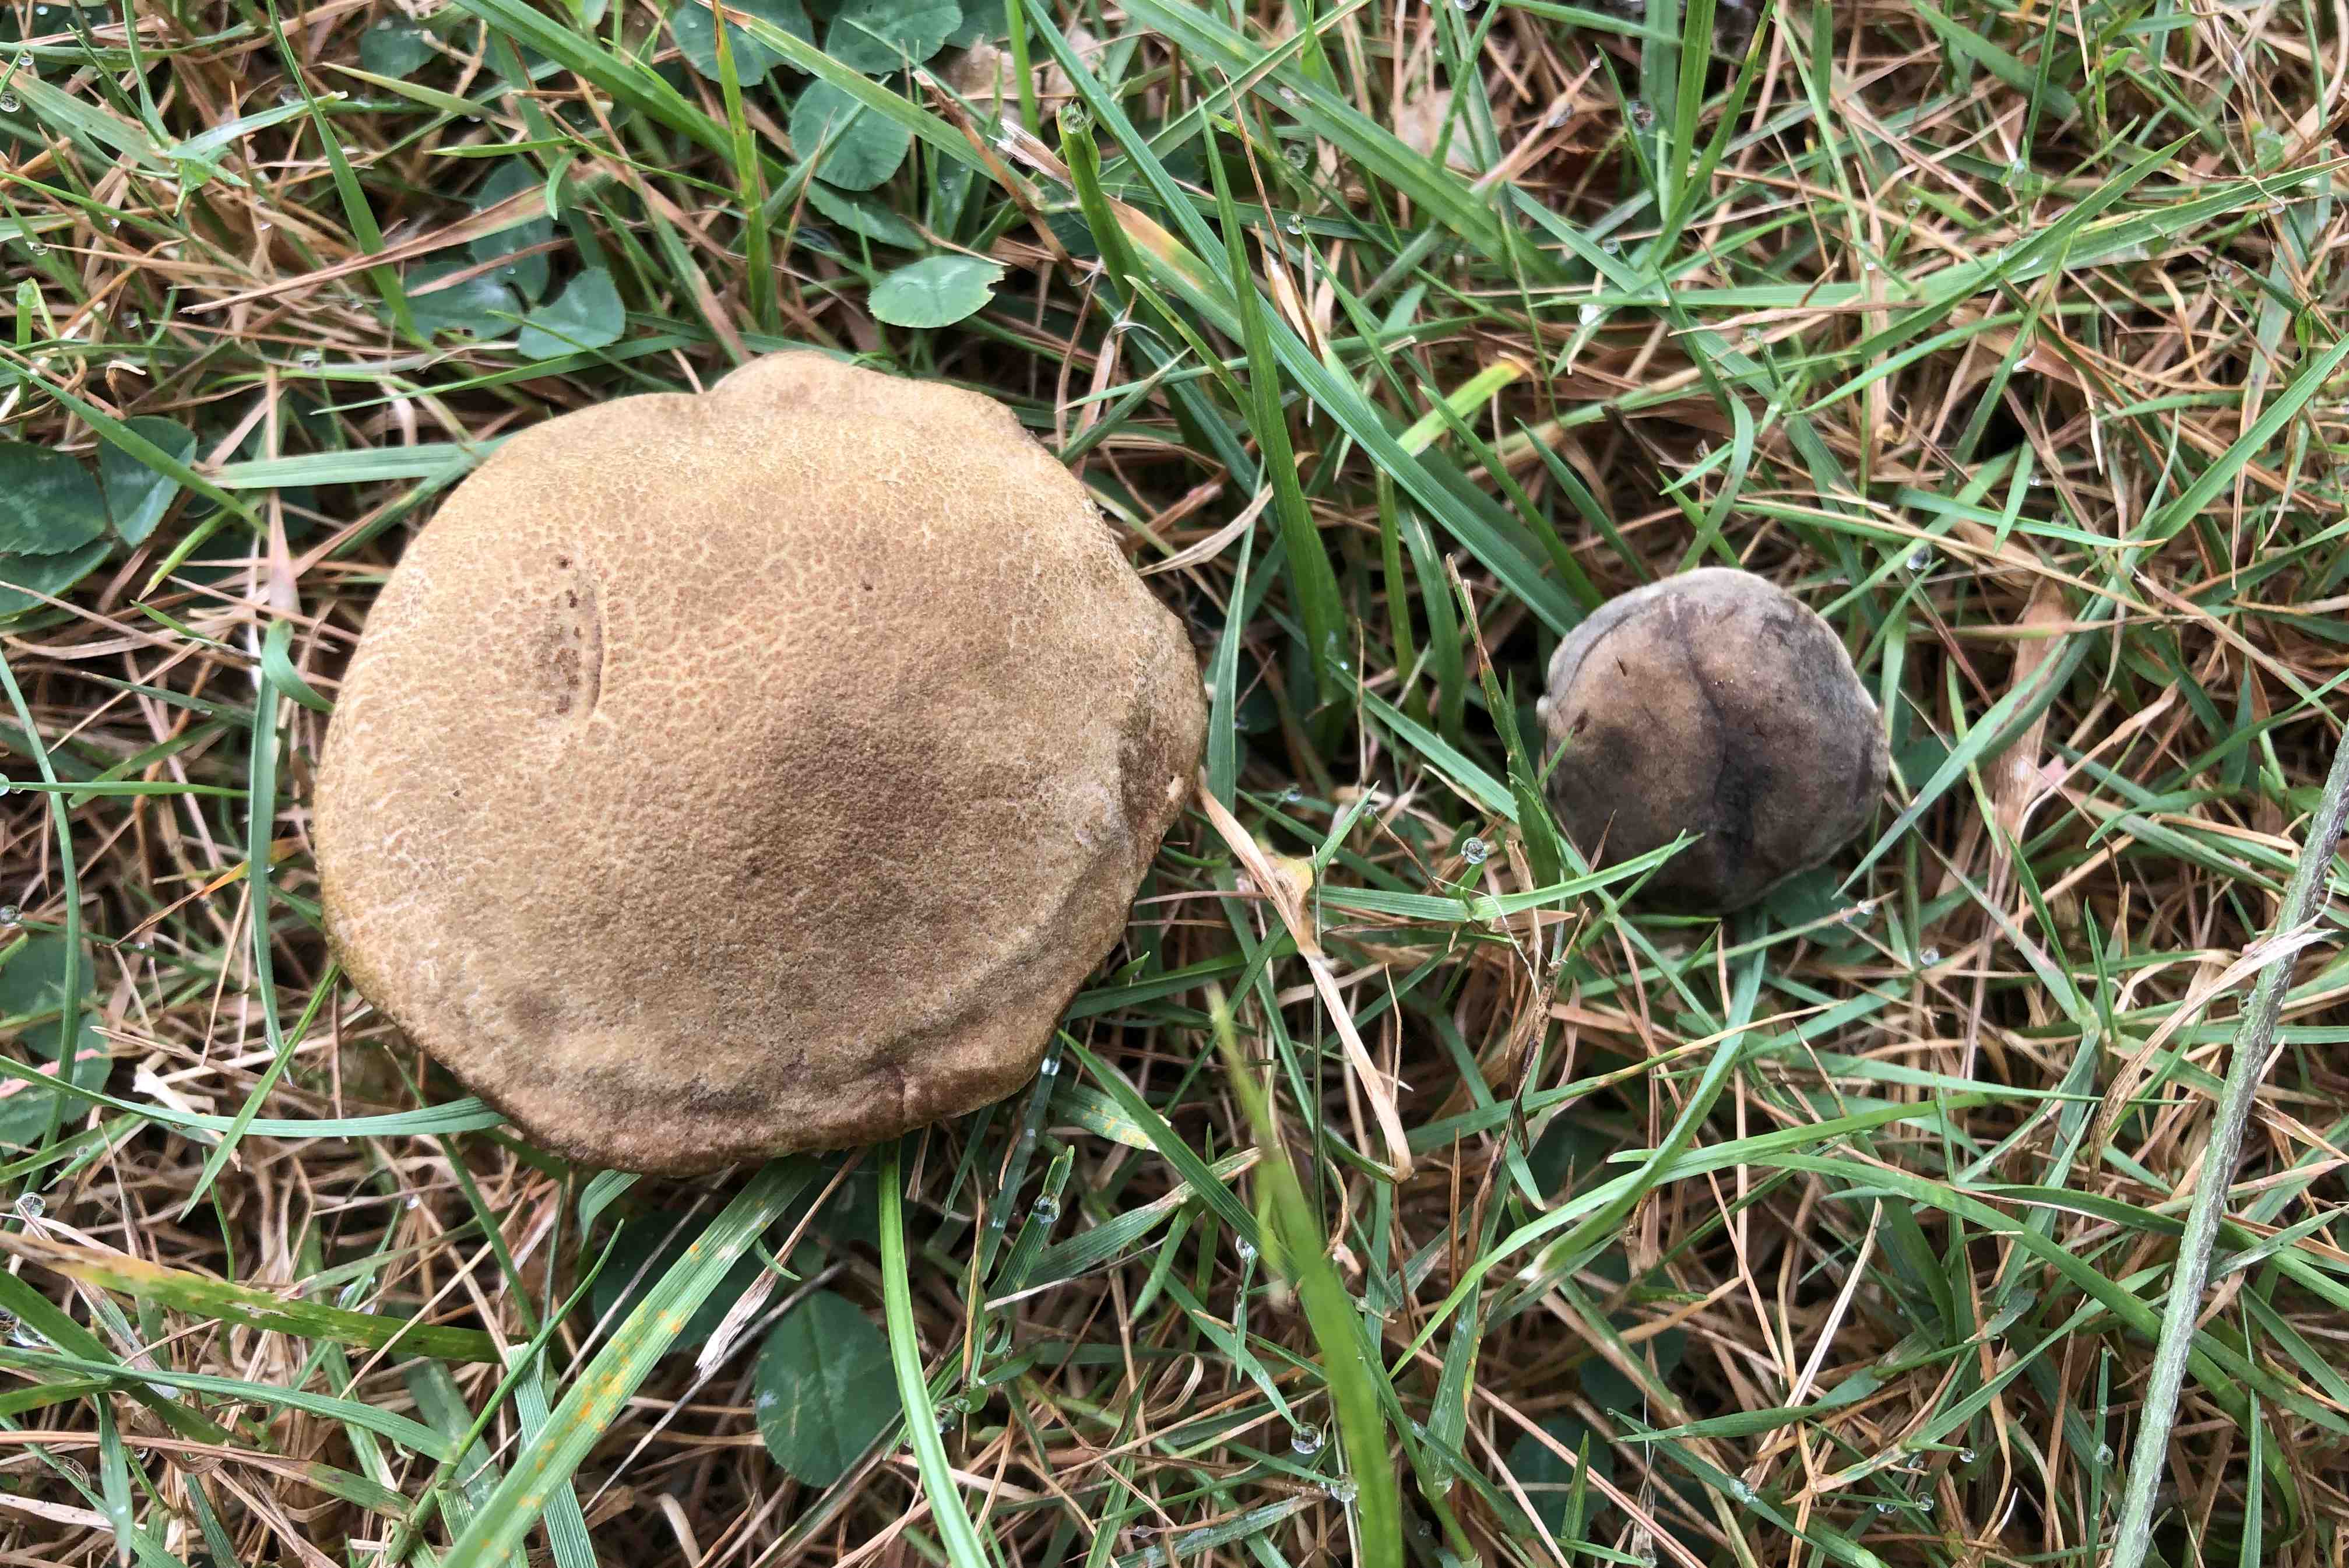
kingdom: Fungi
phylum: Basidiomycota
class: Agaricomycetes
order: Boletales
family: Boletaceae
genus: Xerocomellus
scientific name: Xerocomellus cisalpinus
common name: finsprukken rørhat
